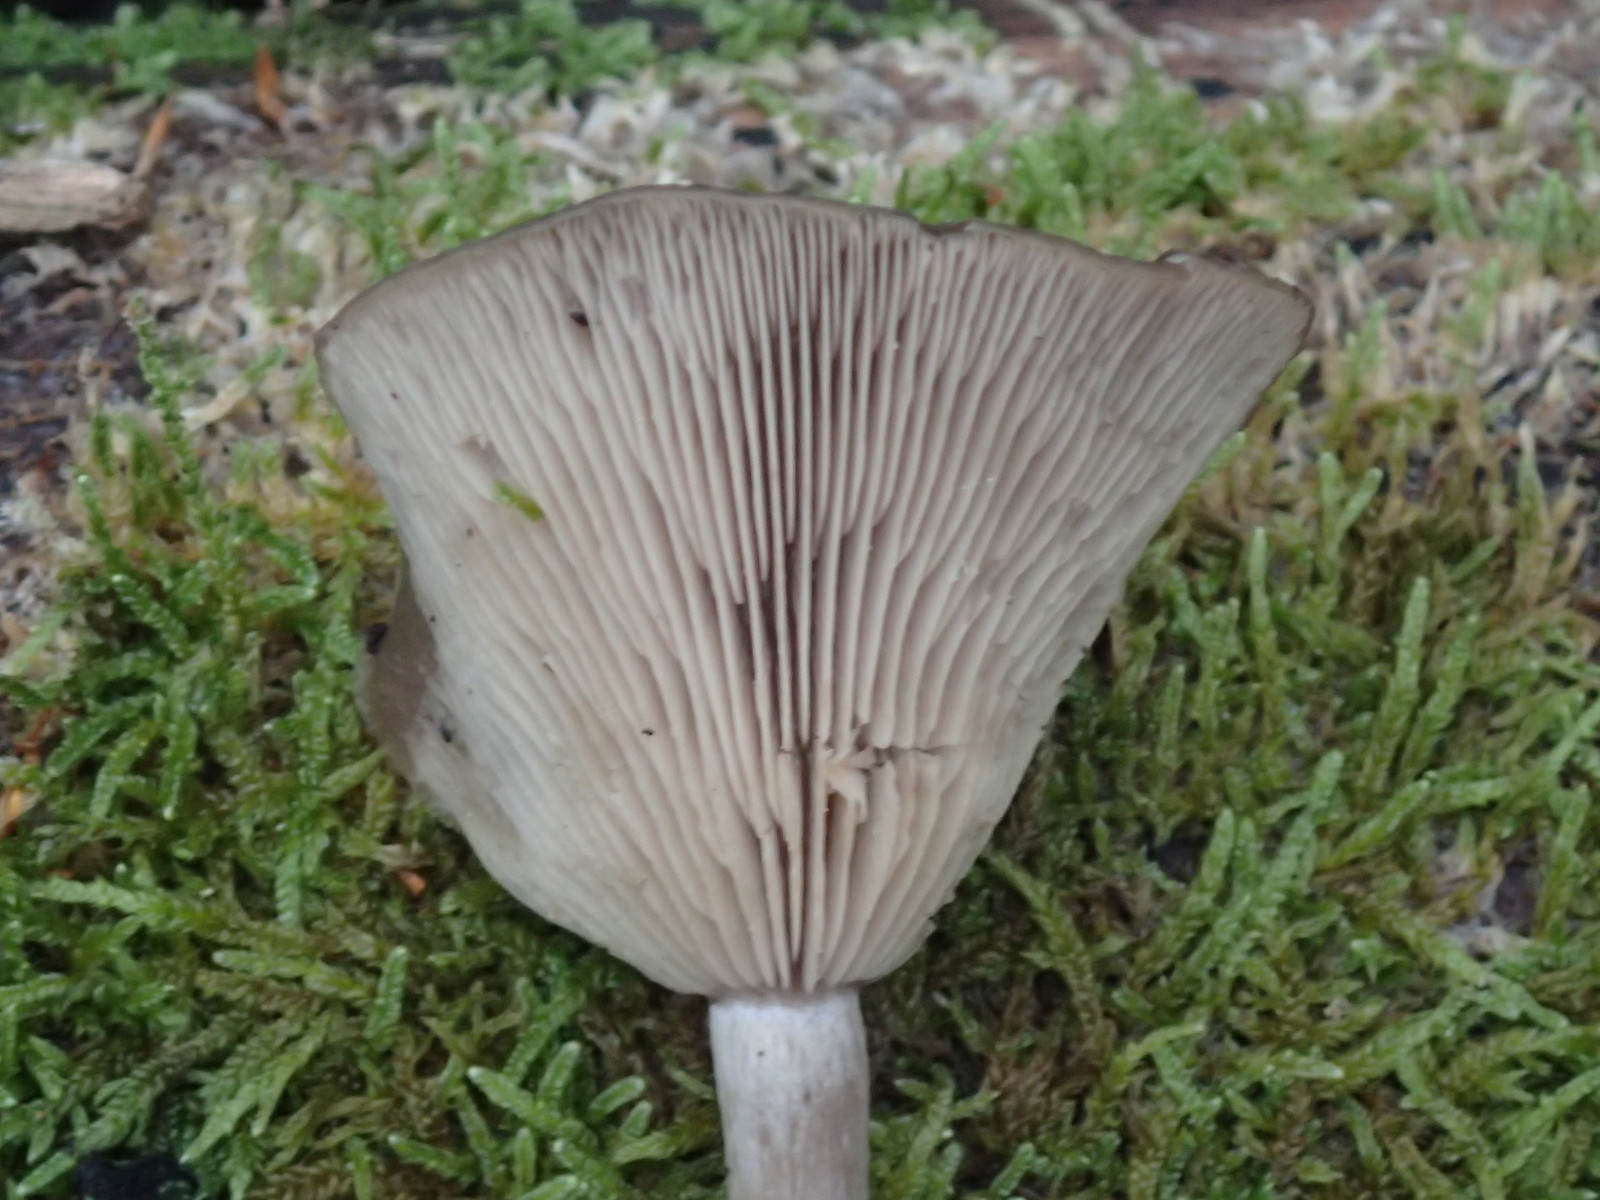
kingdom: Fungi
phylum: Basidiomycota
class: Agaricomycetes
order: Agaricales
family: Pseudoclitocybaceae
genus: Pseudoclitocybe
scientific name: Pseudoclitocybe cyathiformis
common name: almindelig bægertragthat
